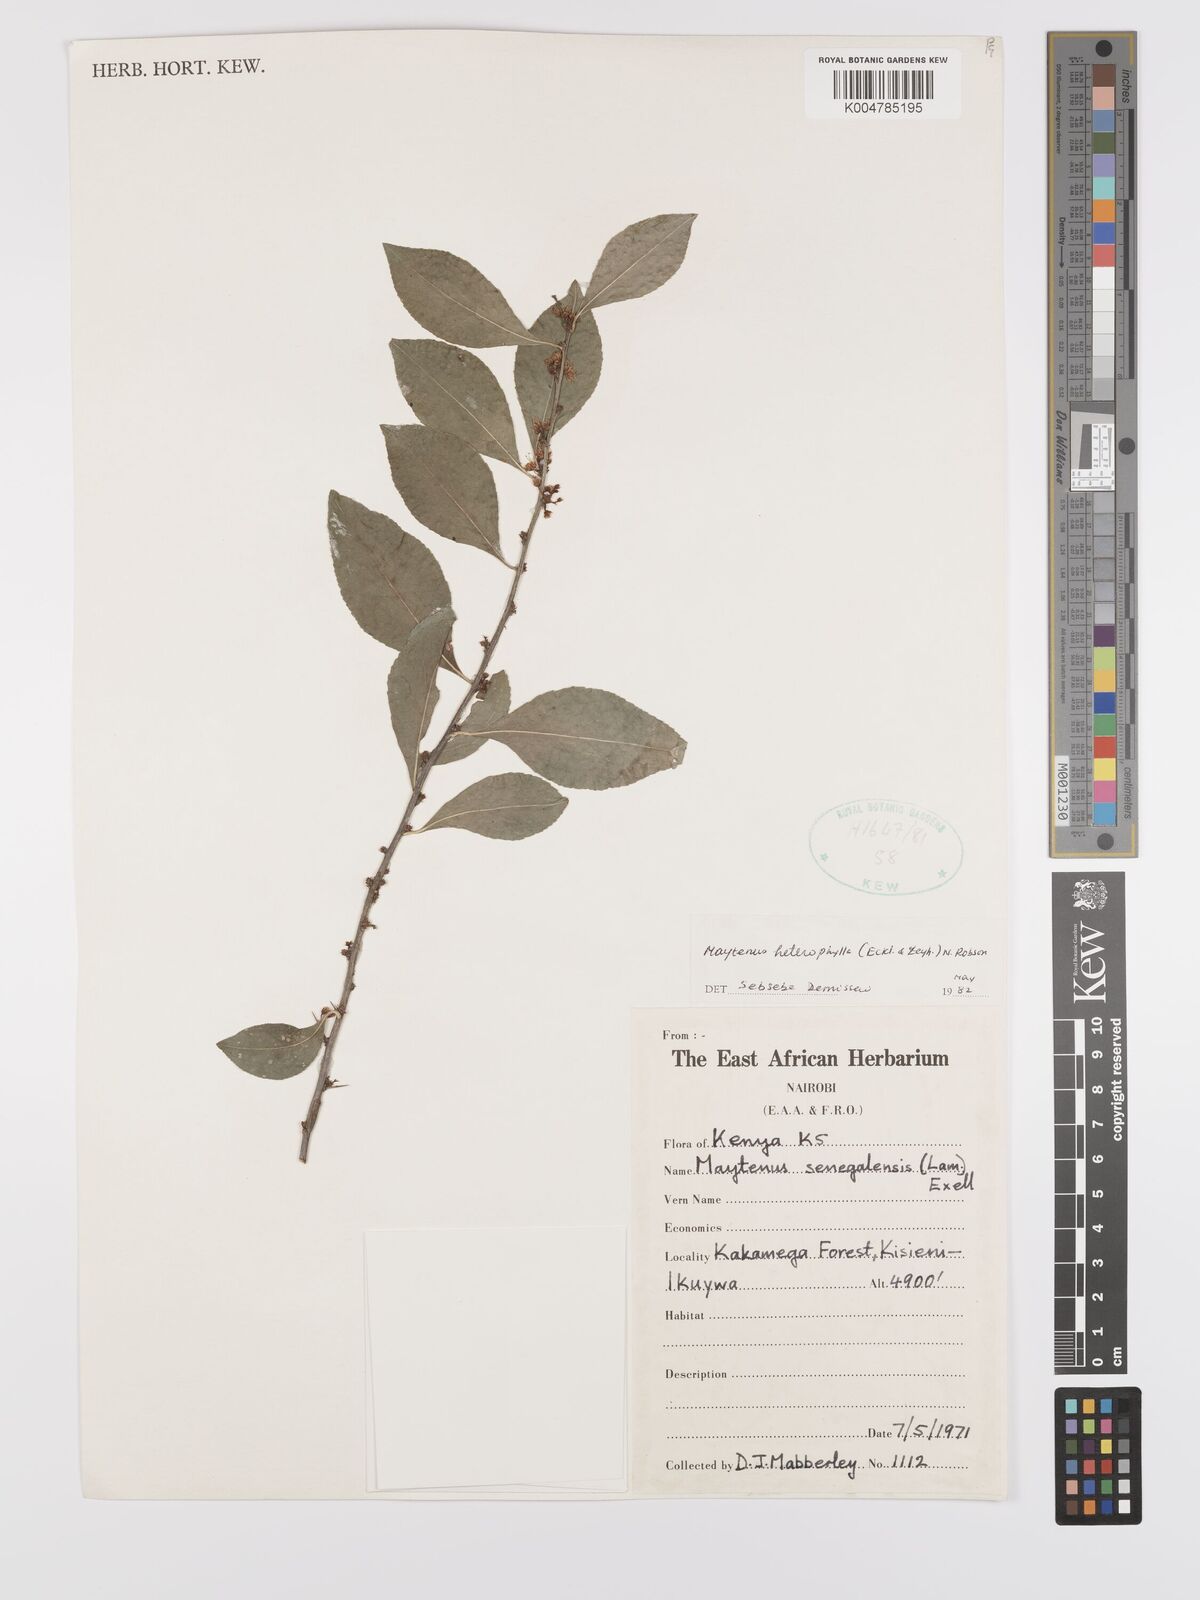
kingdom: Plantae
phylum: Tracheophyta
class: Magnoliopsida
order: Celastrales
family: Celastraceae
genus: Gymnosporia
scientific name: Gymnosporia heterophylla
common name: Angle-stem spikethorn
